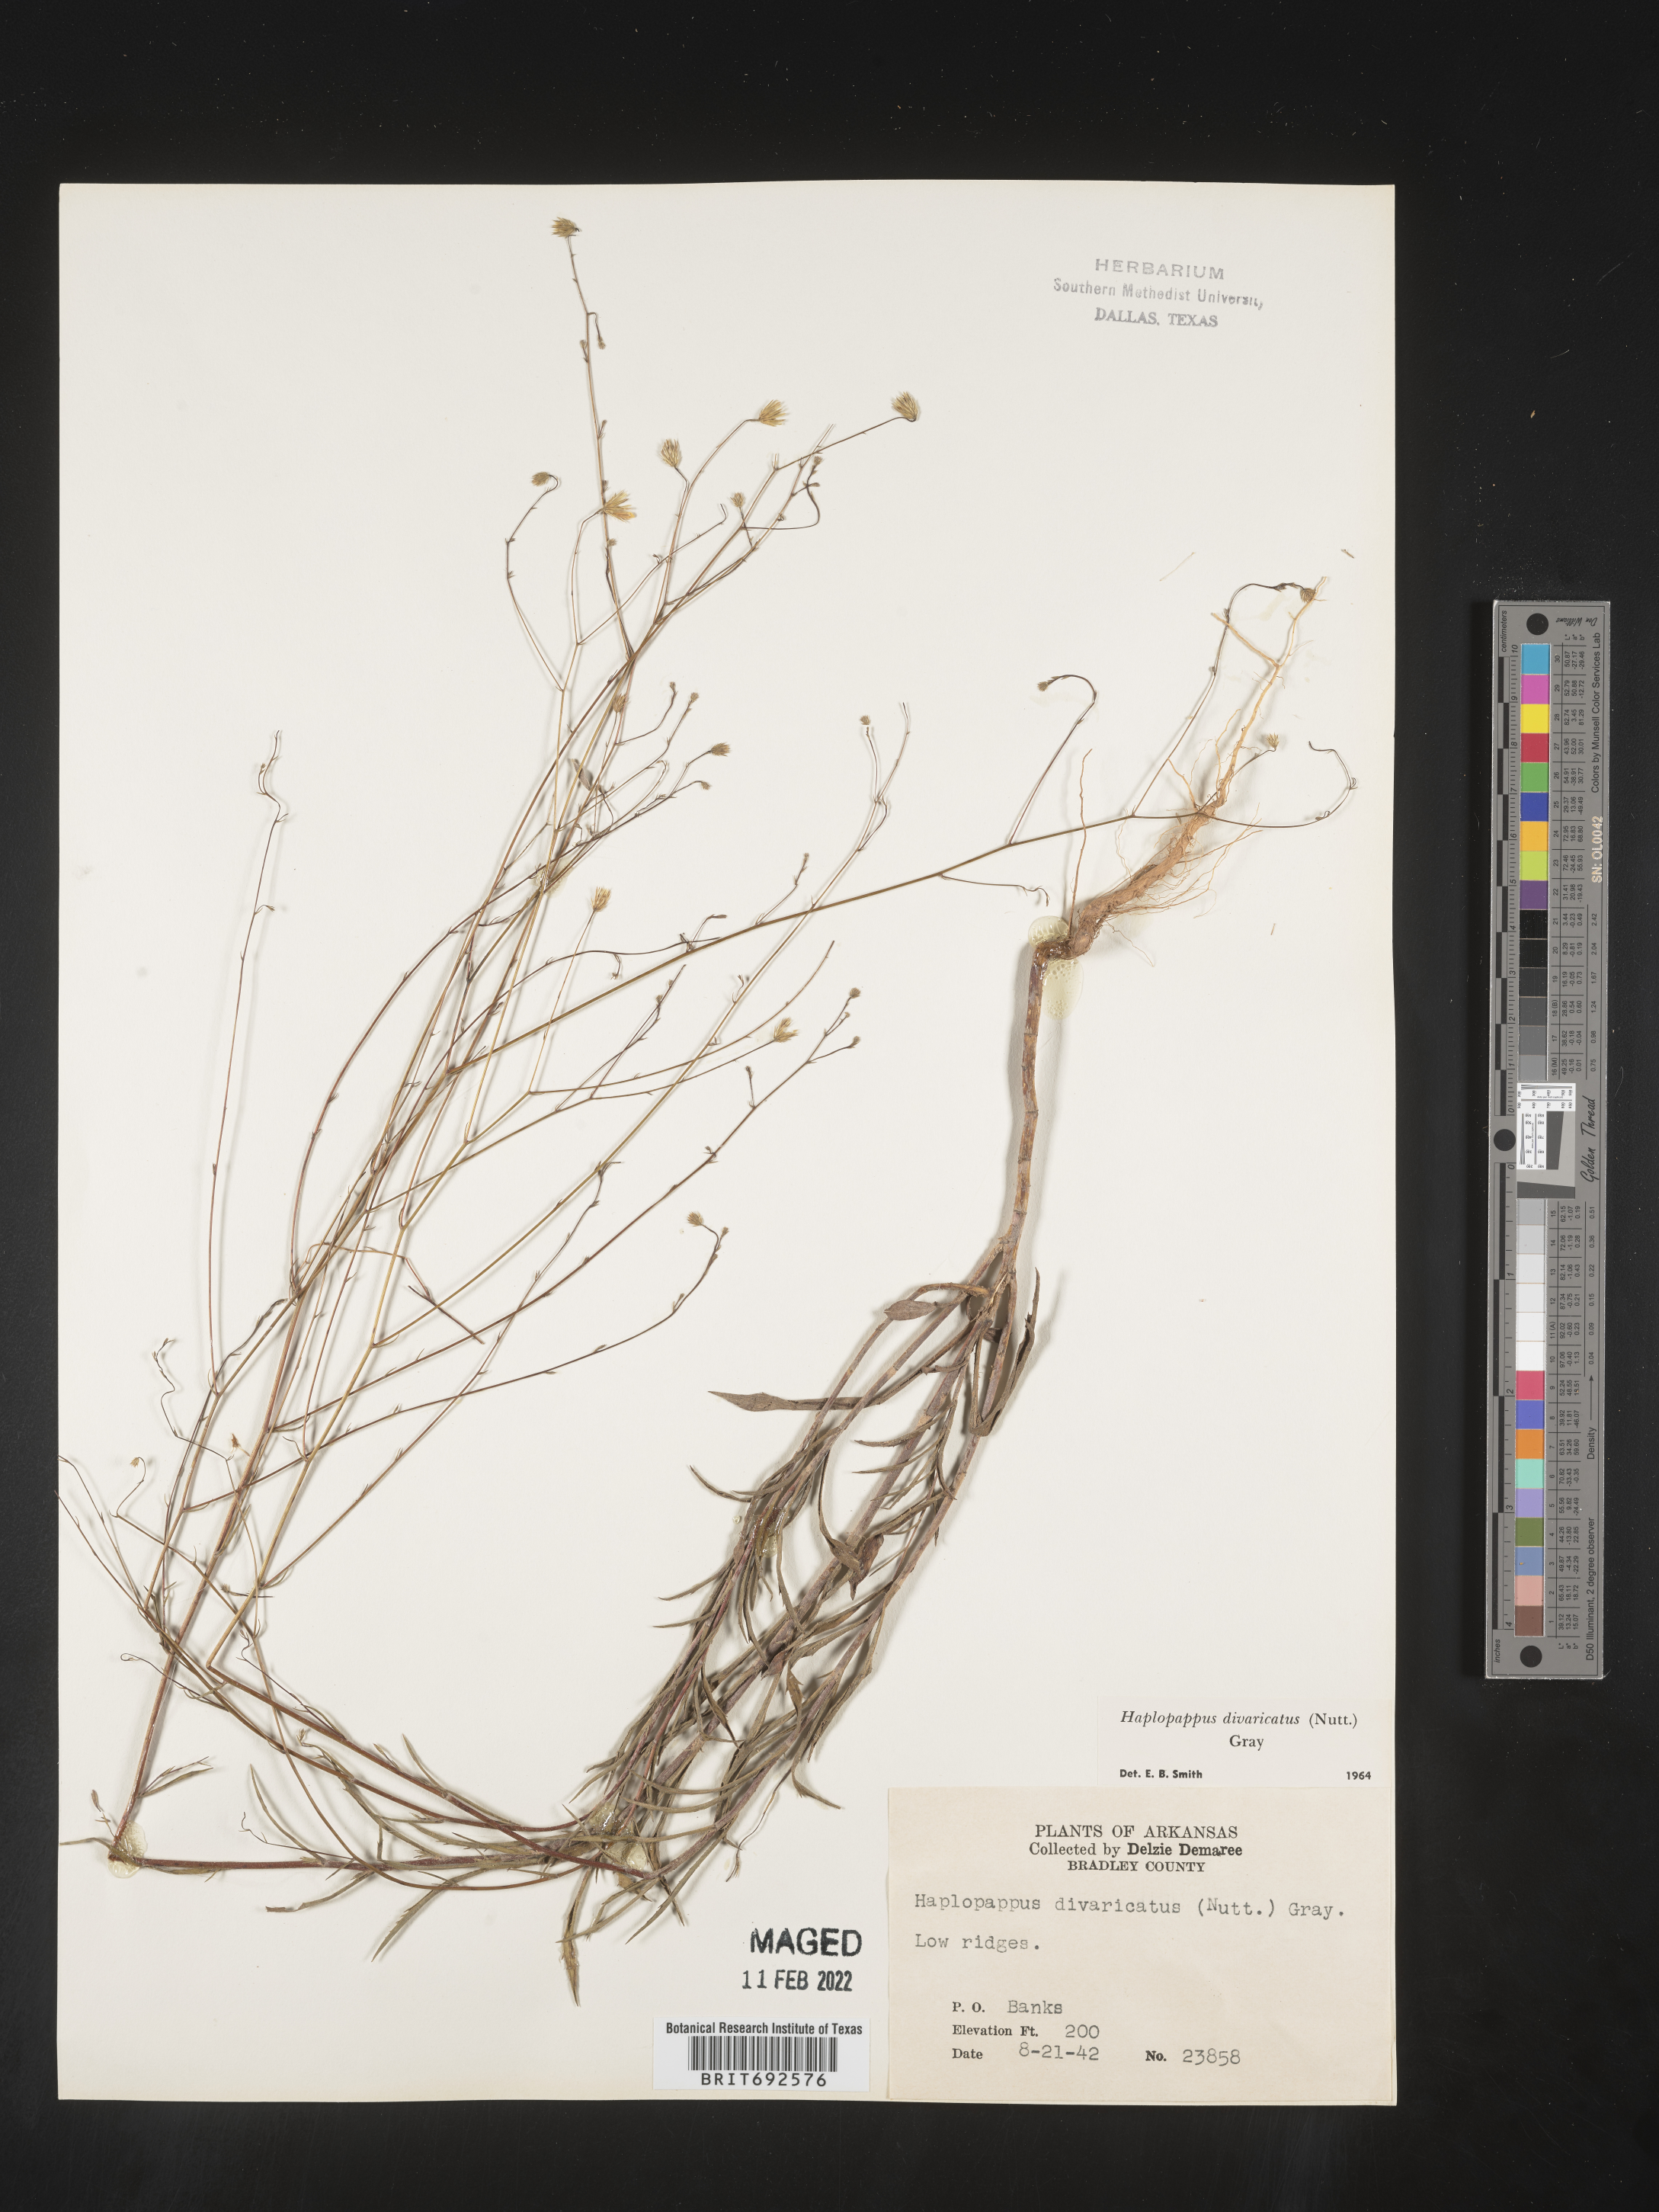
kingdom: Plantae
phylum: Tracheophyta
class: Magnoliopsida
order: Asterales
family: Asteraceae
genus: Croptilon
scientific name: Croptilon divaricatum
